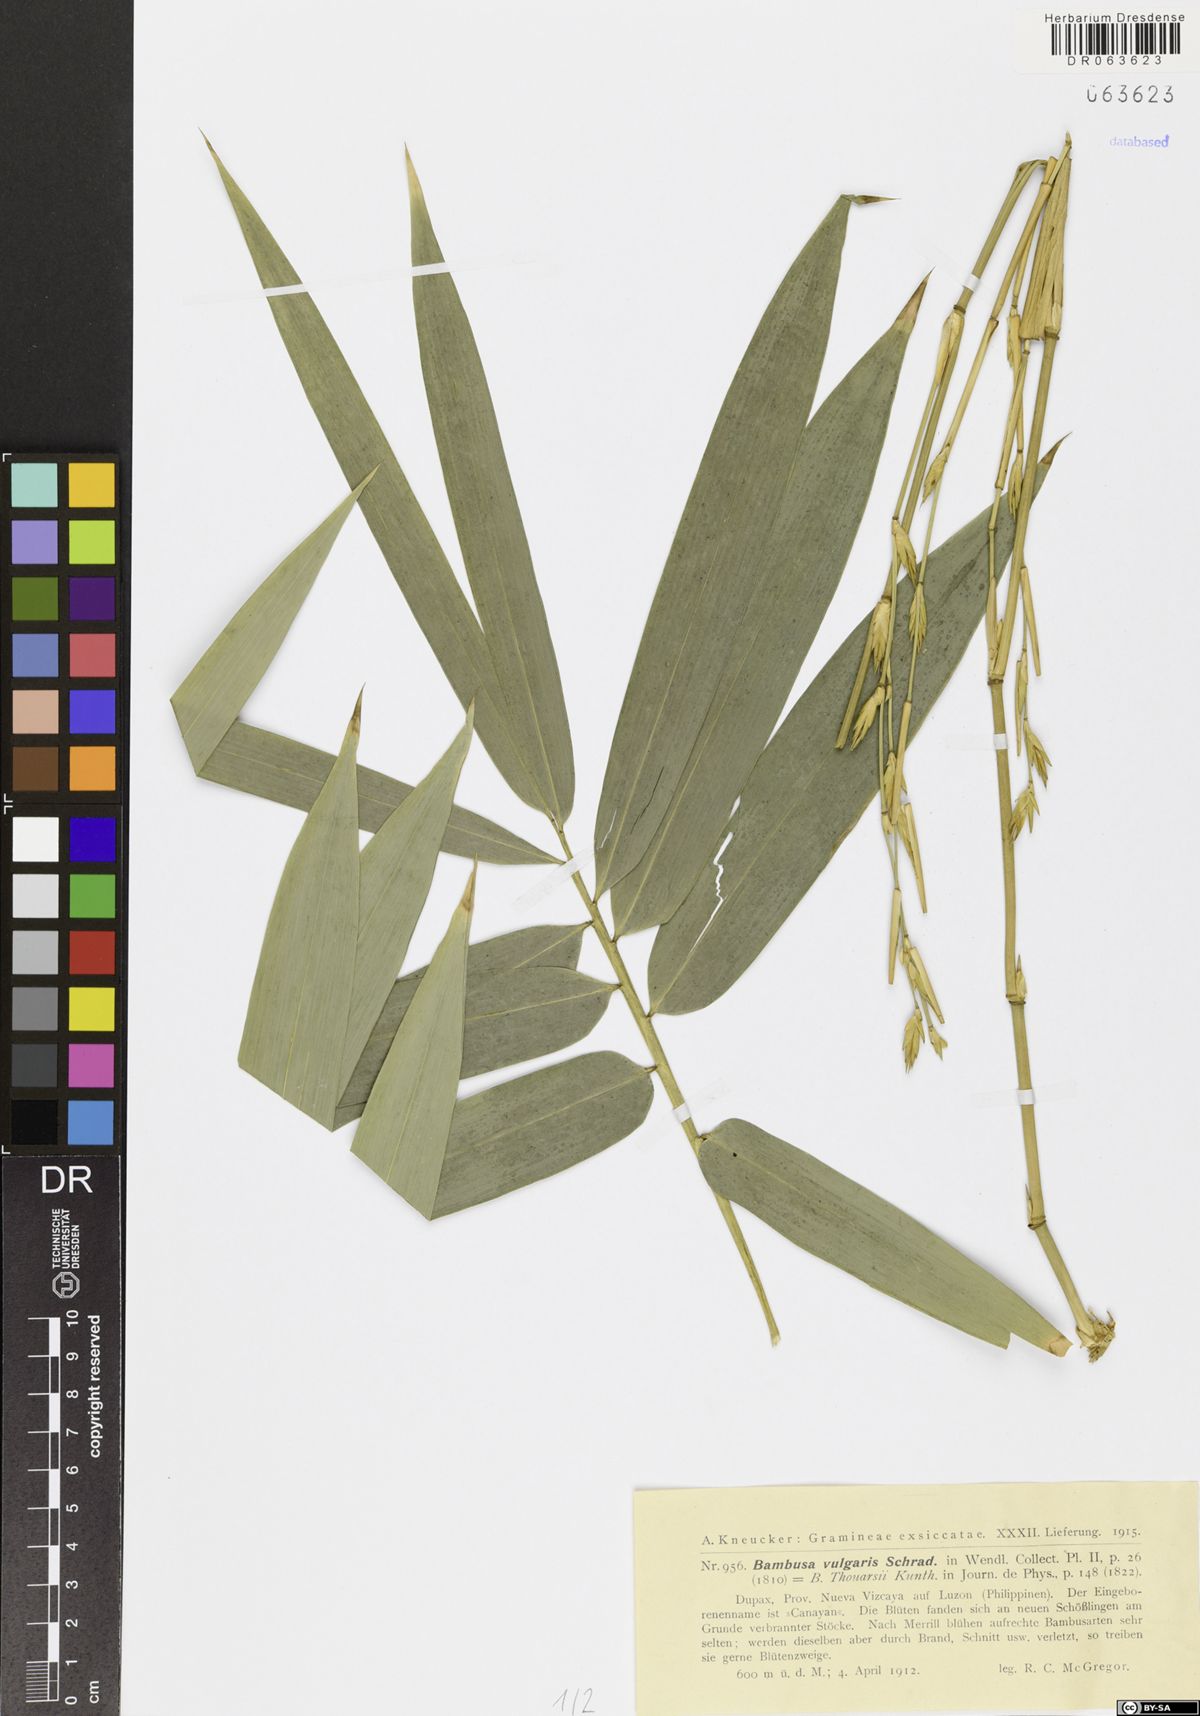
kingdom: Plantae
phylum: Tracheophyta
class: Liliopsida
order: Poales
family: Poaceae
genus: Bambusa
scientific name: Bambusa vulgaris
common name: Common bamboo
